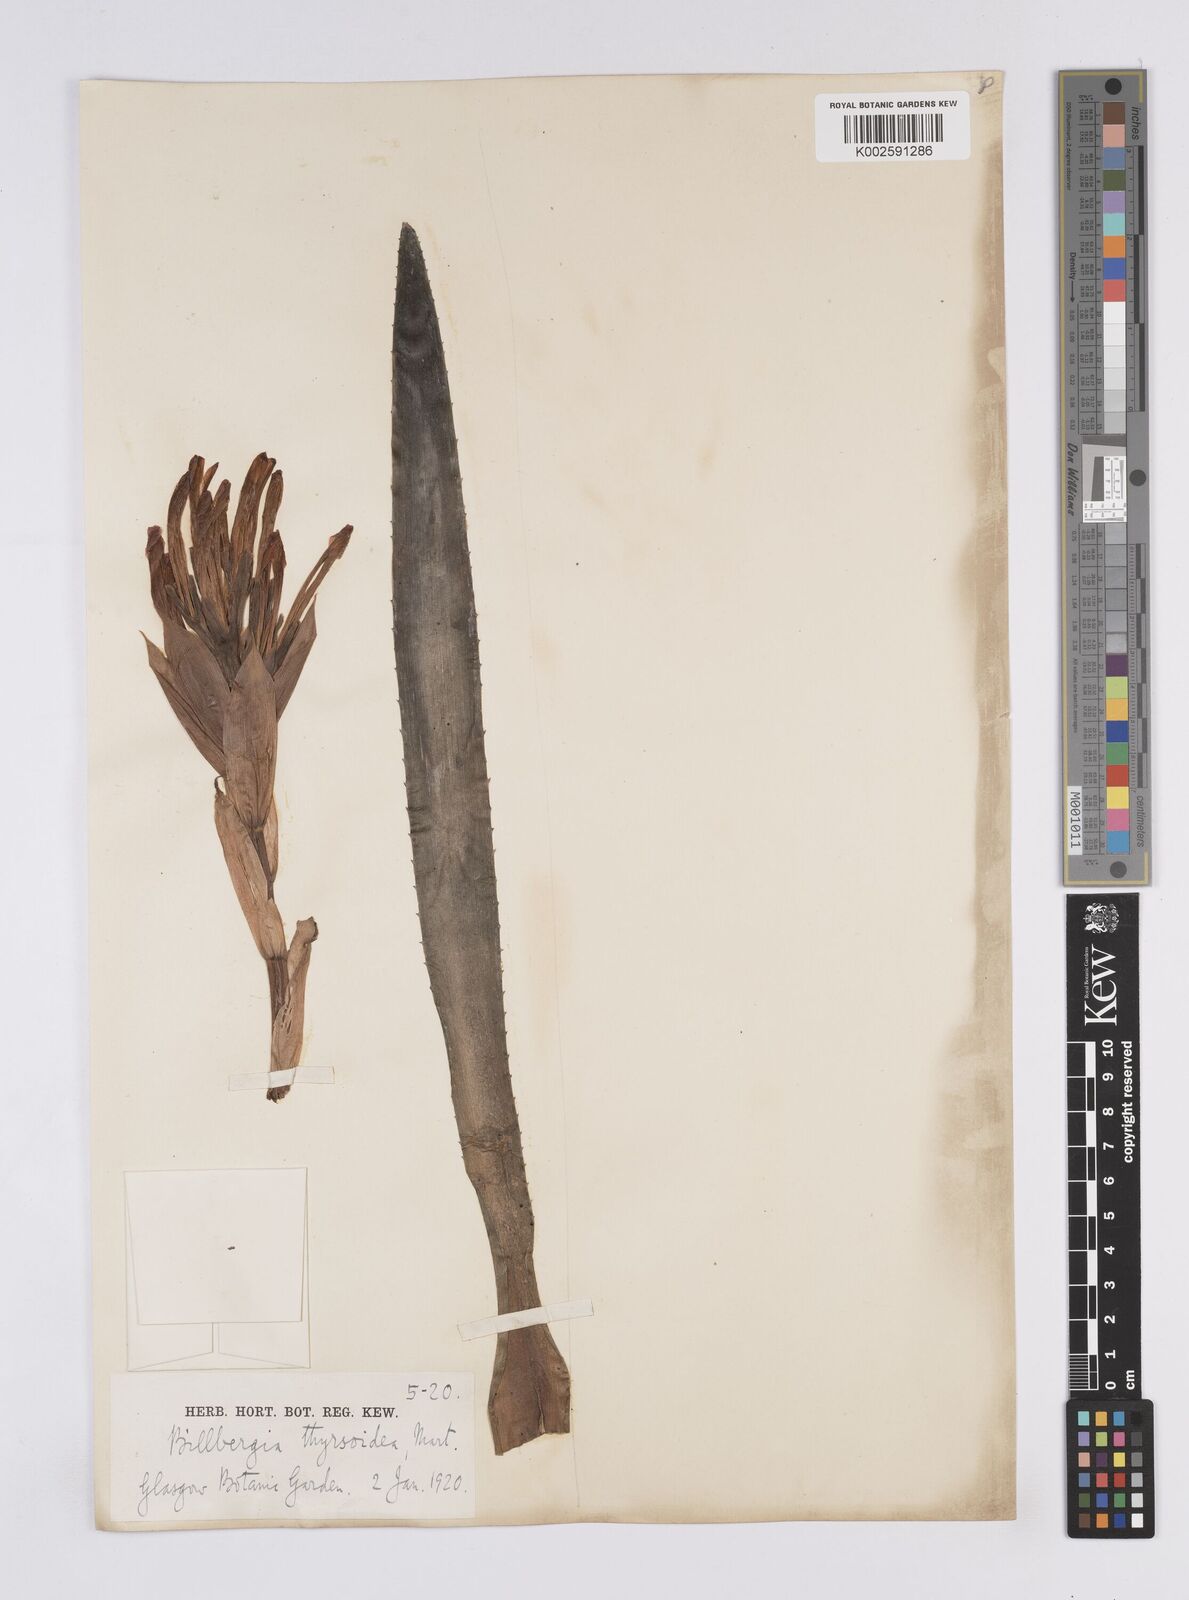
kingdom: Plantae
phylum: Tracheophyta
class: Liliopsida
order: Poales
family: Bromeliaceae
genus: Billbergia
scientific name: Billbergia pyramidalis
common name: Foolproofplant
